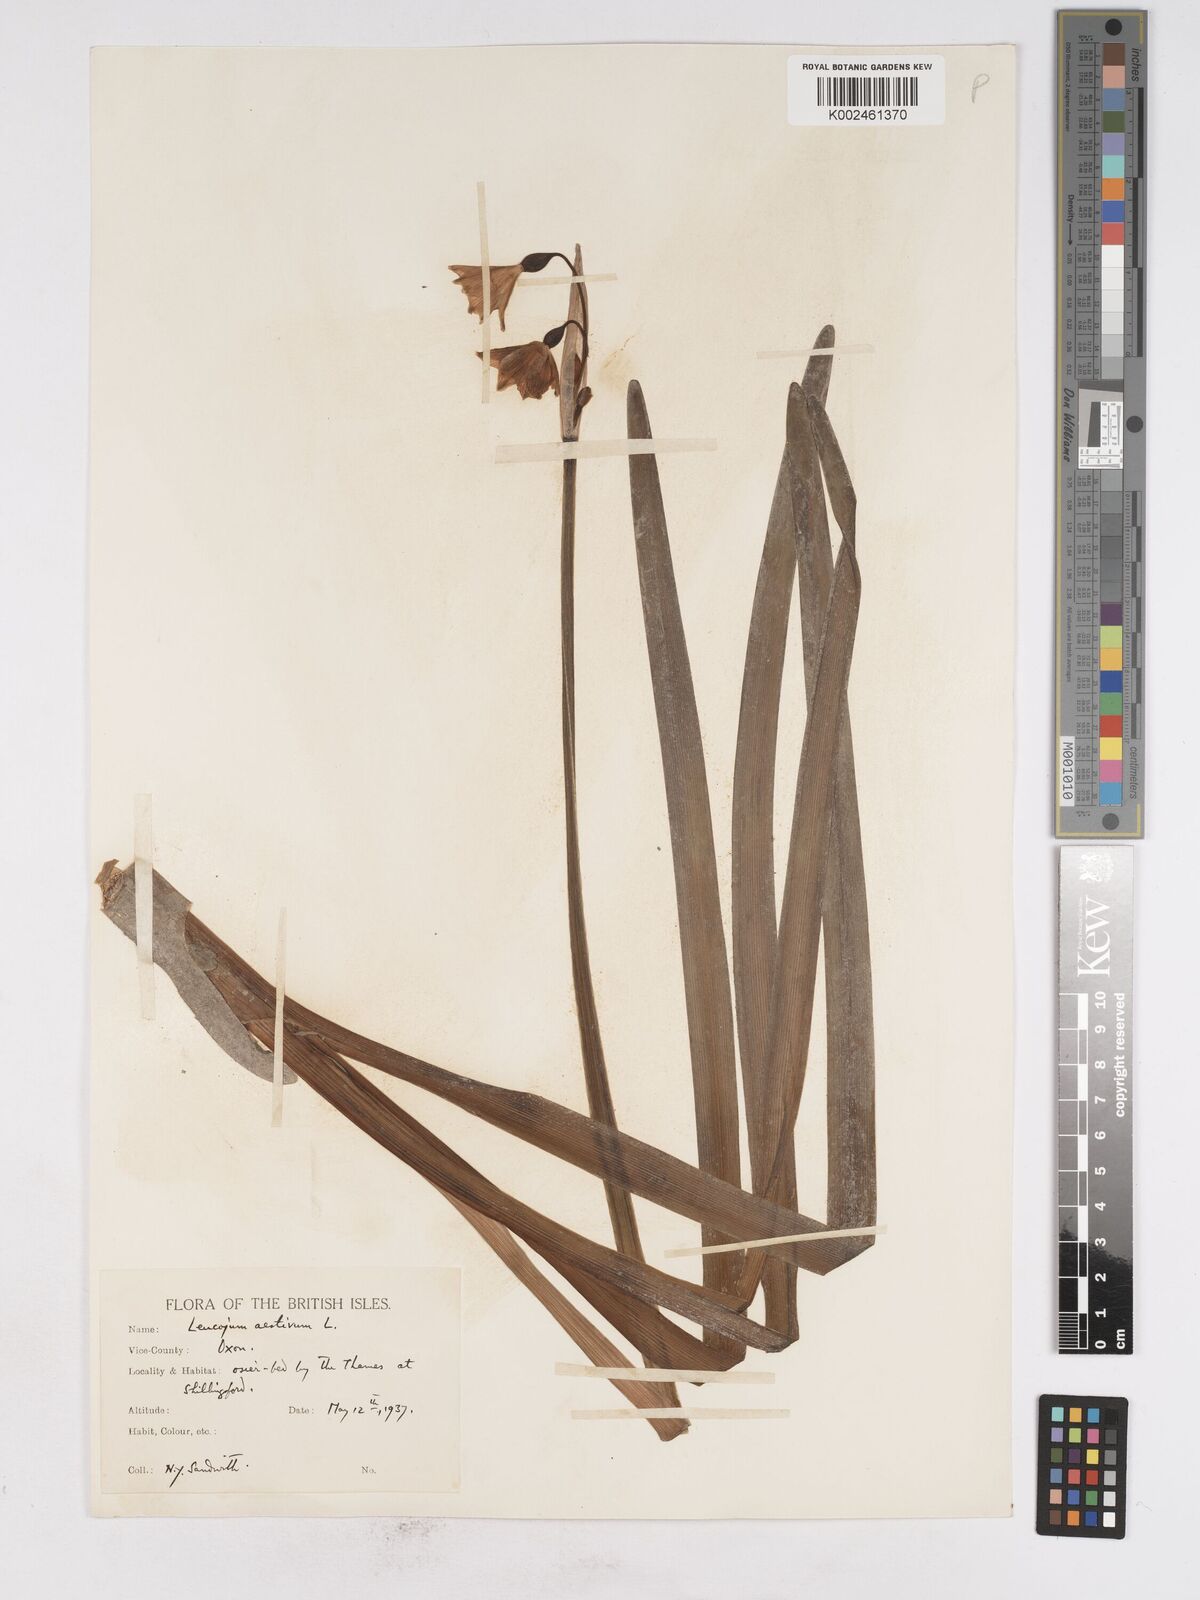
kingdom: Plantae
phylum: Tracheophyta
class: Liliopsida
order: Asparagales
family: Amaryllidaceae
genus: Leucojum
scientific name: Leucojum aestivum
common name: Summer snowflake
